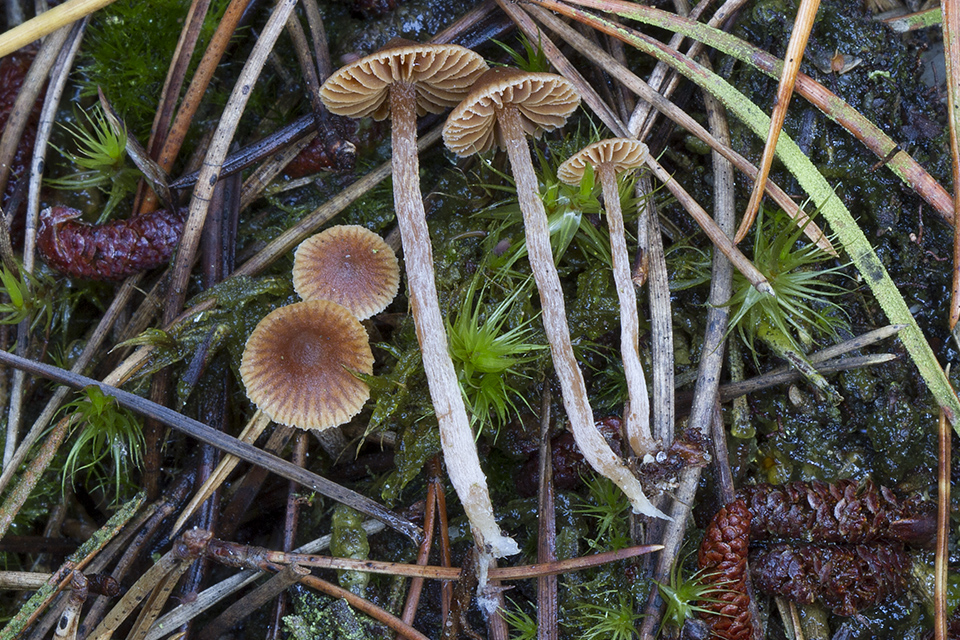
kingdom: Fungi
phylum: Basidiomycota
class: Agaricomycetes
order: Agaricales
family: Cortinariaceae
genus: Cortinarius
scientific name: Cortinarius pseudoacutus
